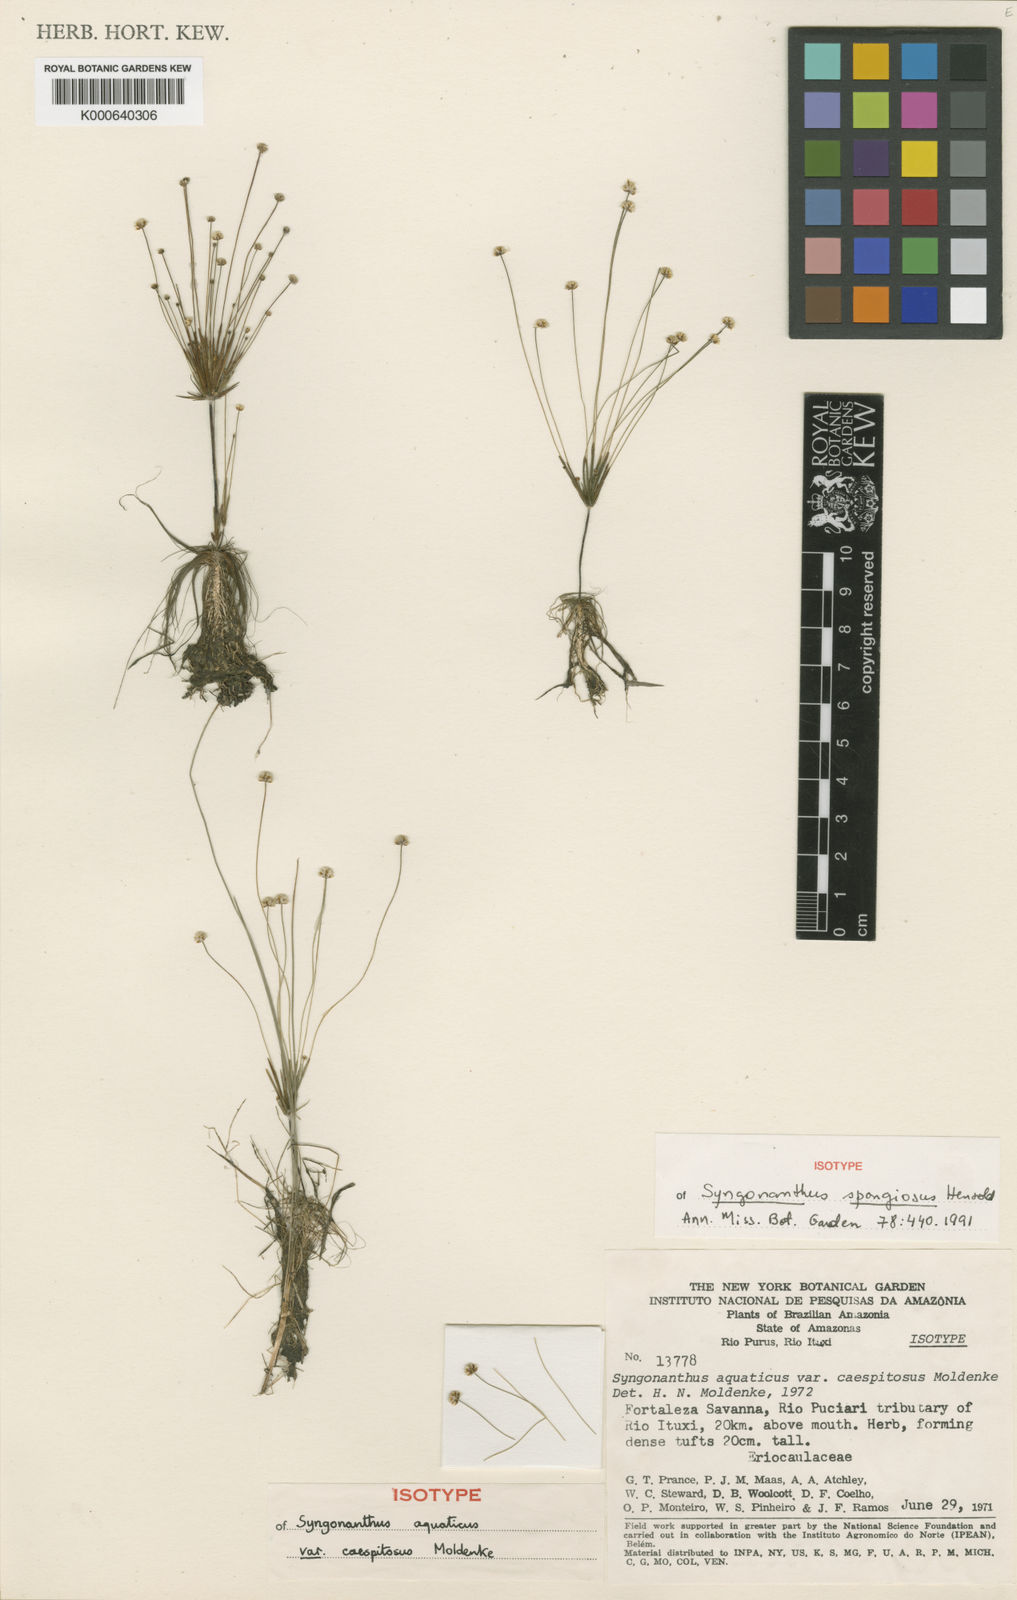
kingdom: Plantae
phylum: Tracheophyta
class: Liliopsida
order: Poales
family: Eriocaulaceae
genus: Syngonanthus
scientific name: Syngonanthus aquaticus
